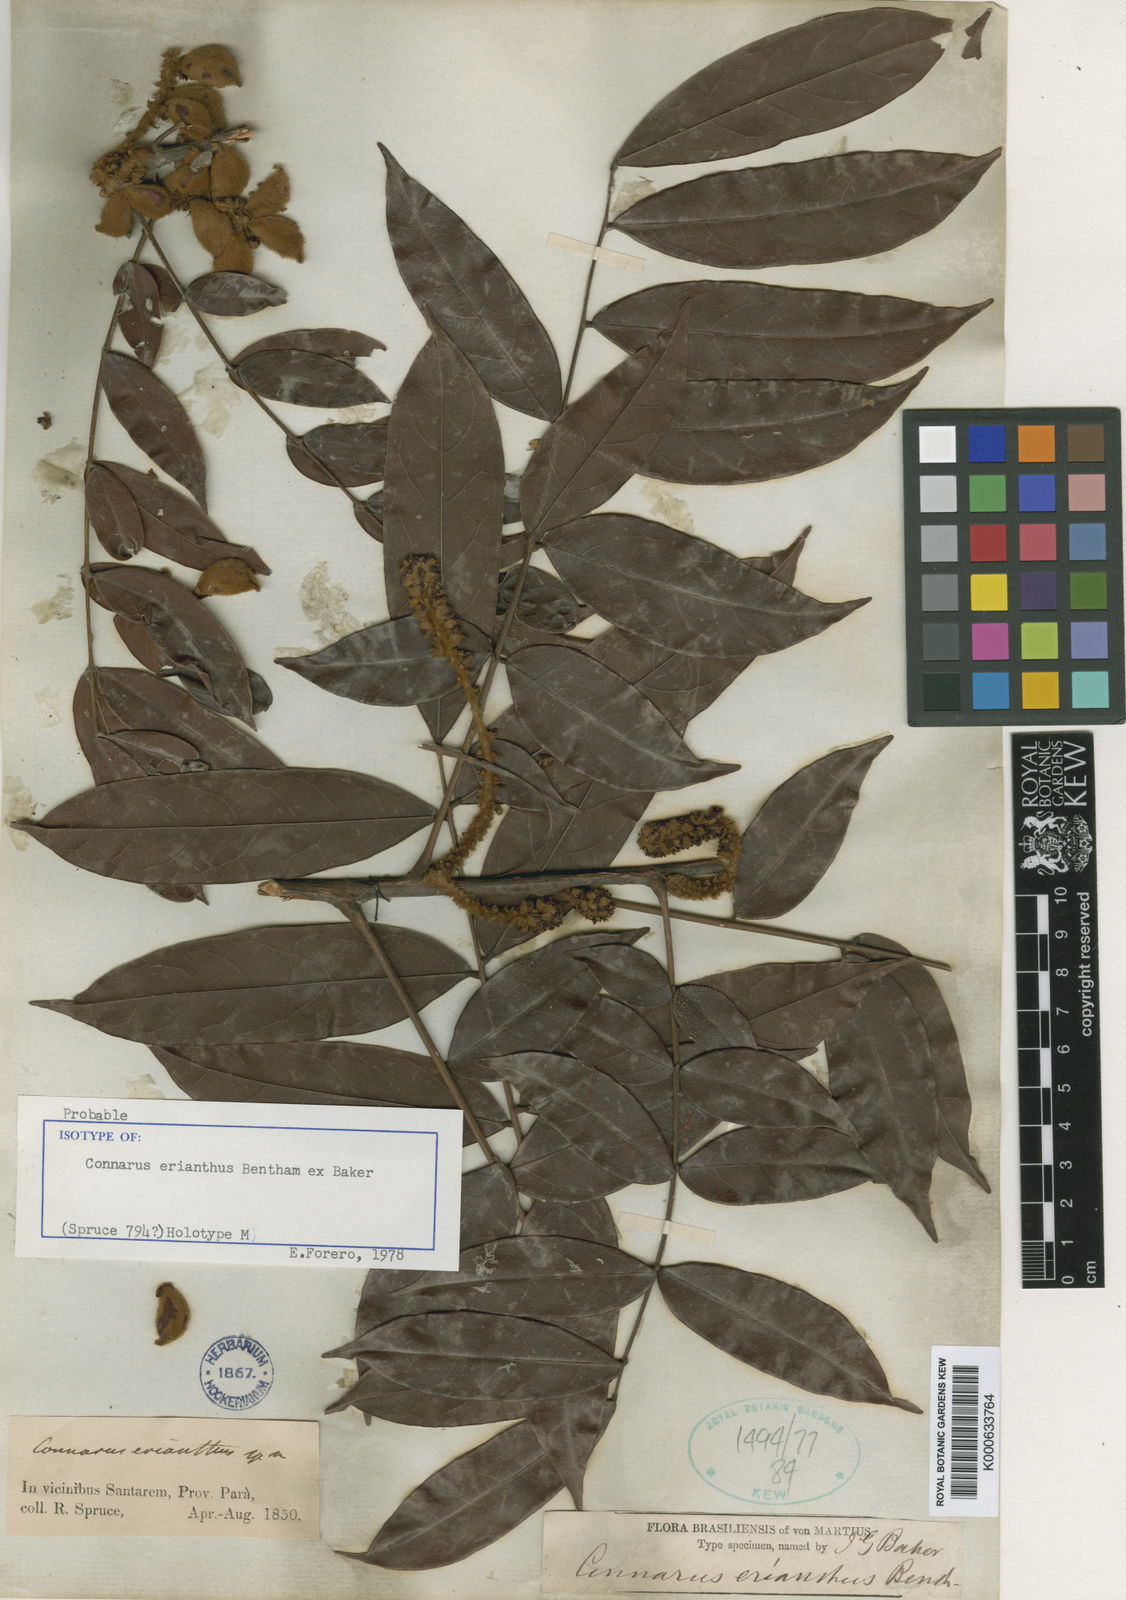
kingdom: Plantae
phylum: Tracheophyta
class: Magnoliopsida
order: Oxalidales
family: Connaraceae
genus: Connarus
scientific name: Connarus erianthus
